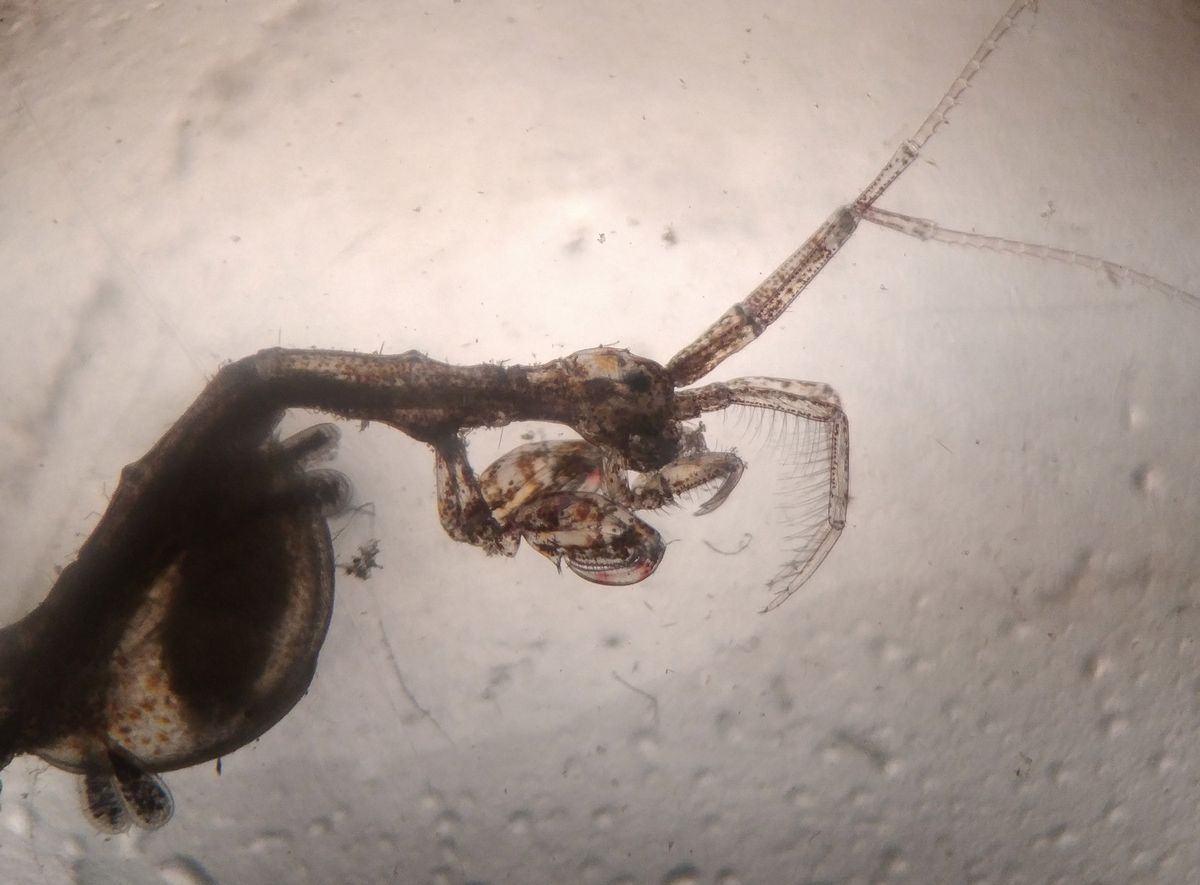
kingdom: Animalia
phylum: Arthropoda
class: Malacostraca
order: Amphipoda
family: Caprellidae
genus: Caprella
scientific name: Caprella septentrionalis
